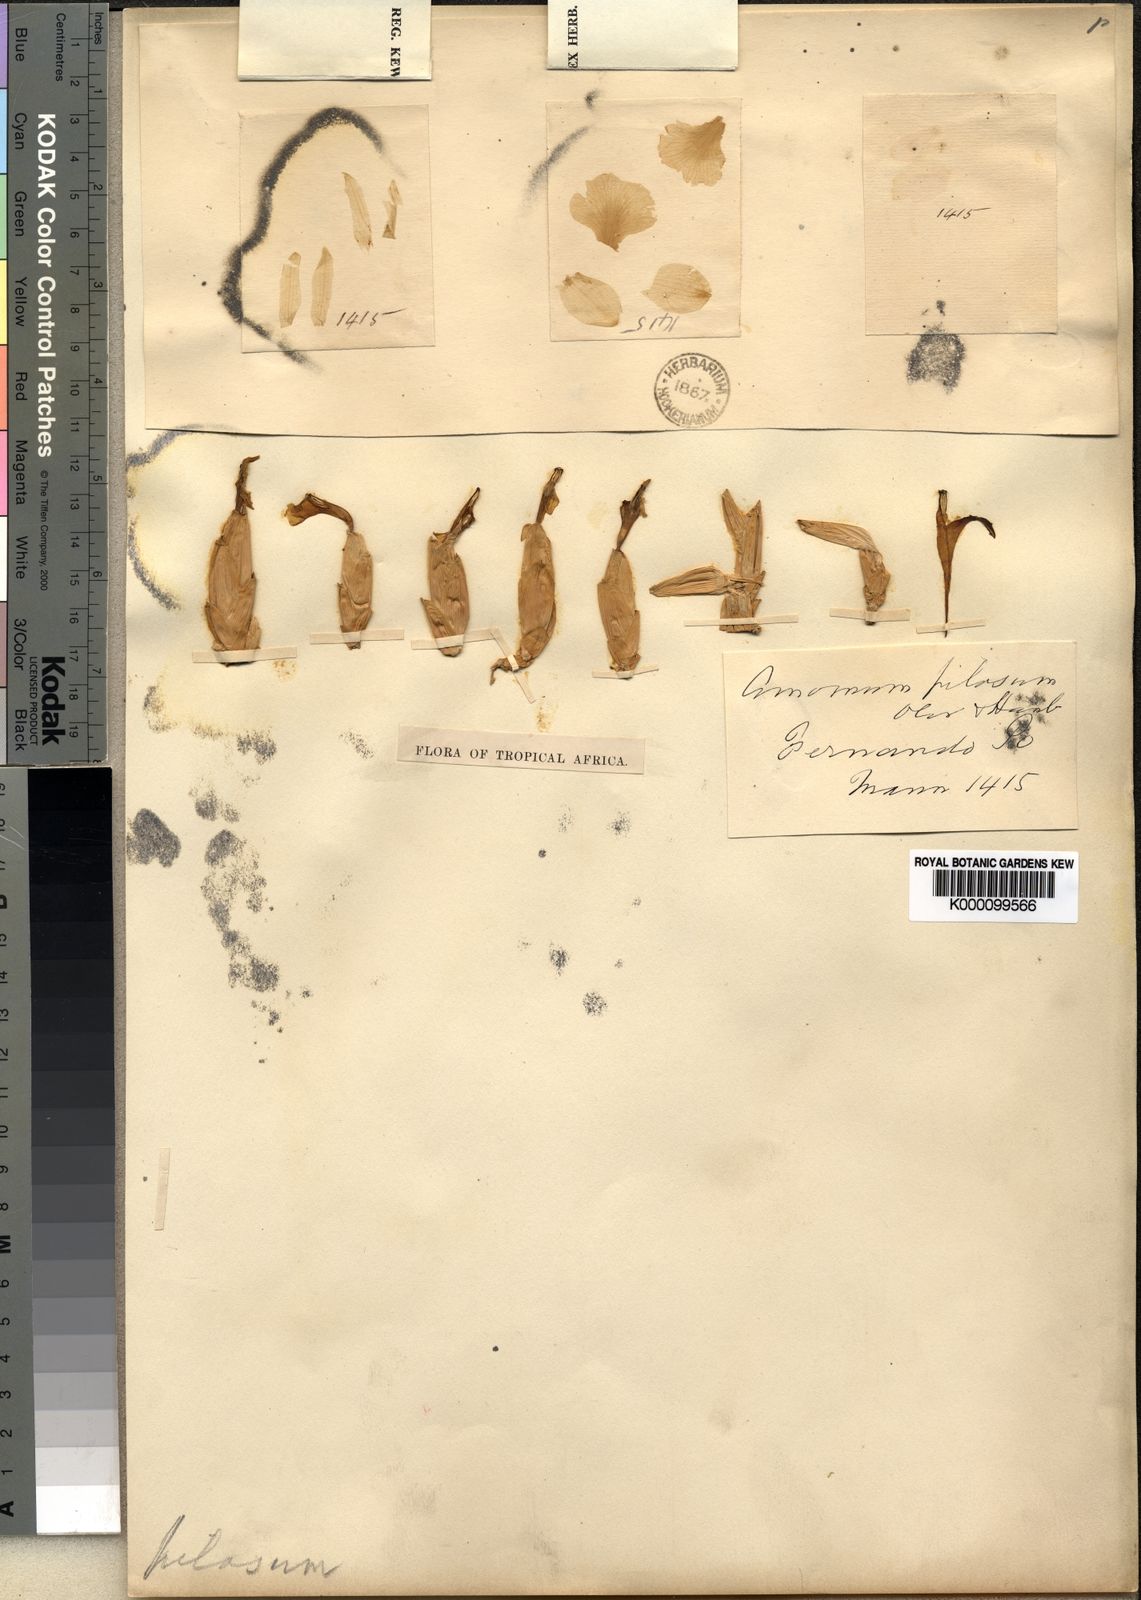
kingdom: Plantae
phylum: Tracheophyta
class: Liliopsida
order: Zingiberales
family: Zingiberaceae
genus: Aframomum
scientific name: Aframomum pilosum
